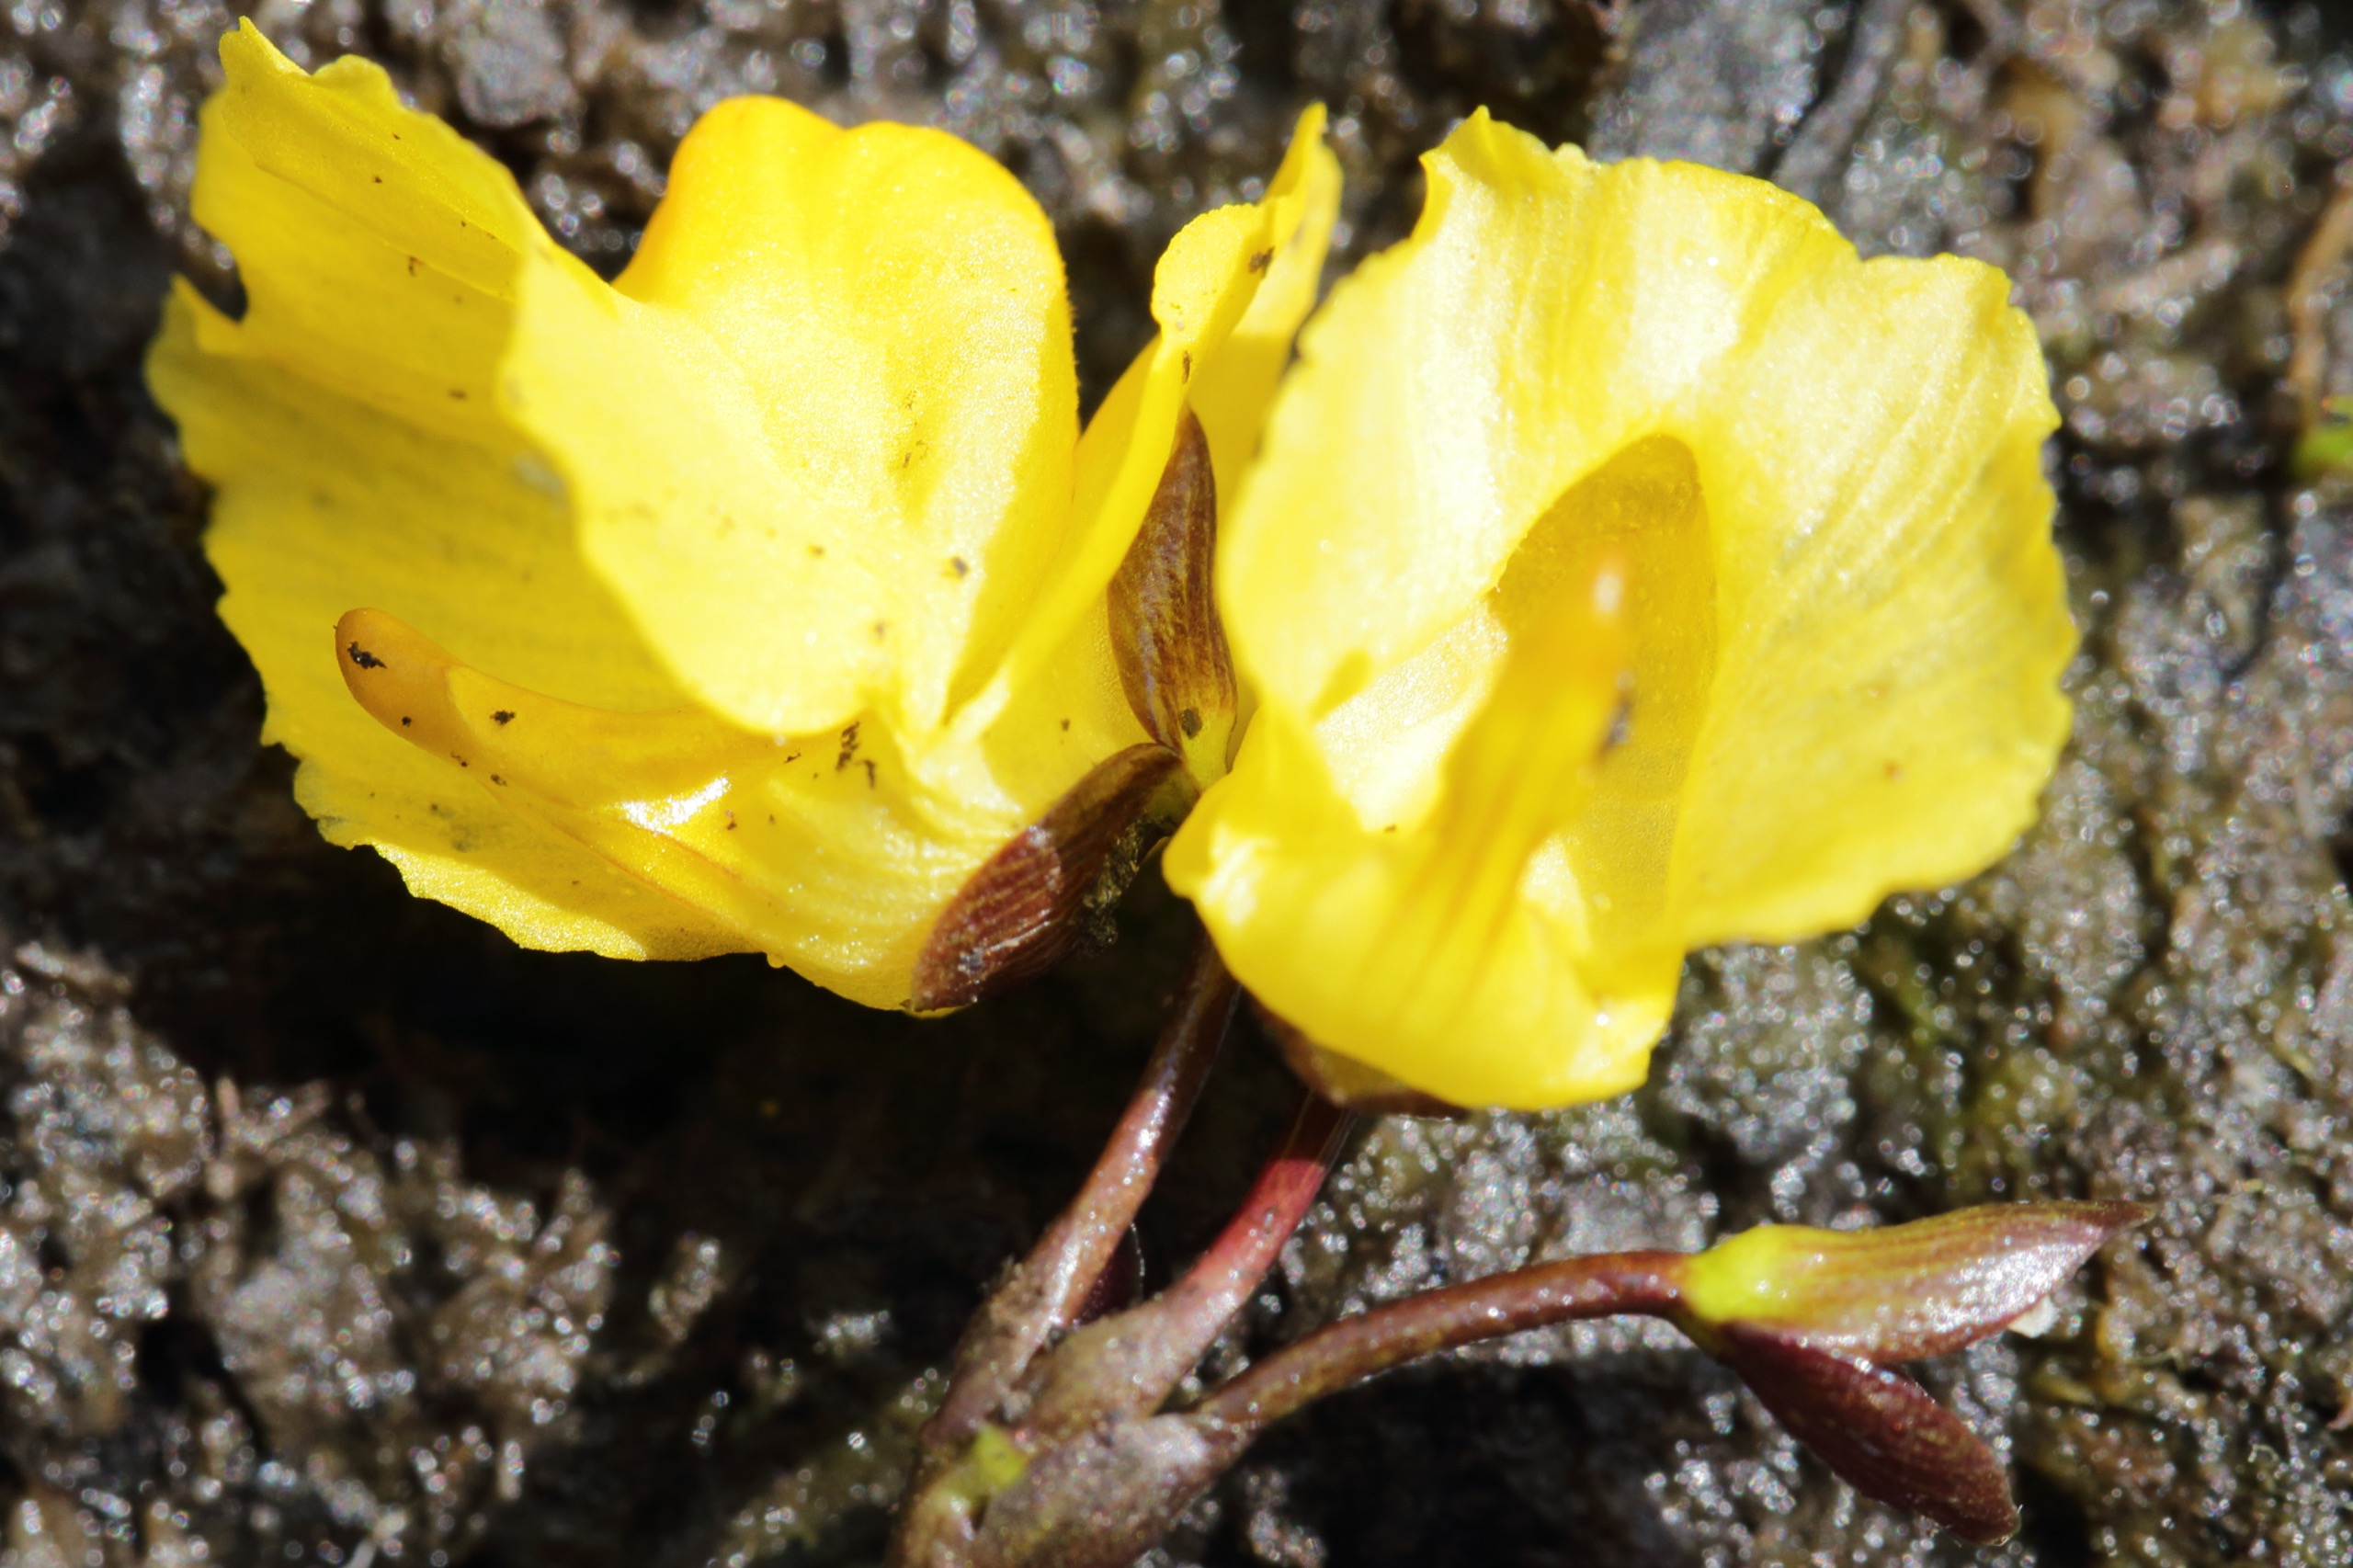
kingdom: Plantae
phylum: Tracheophyta
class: Magnoliopsida
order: Lamiales
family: Lentibulariaceae
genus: Utricularia
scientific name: Utricularia vulgaris
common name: Almindelig blærerod
